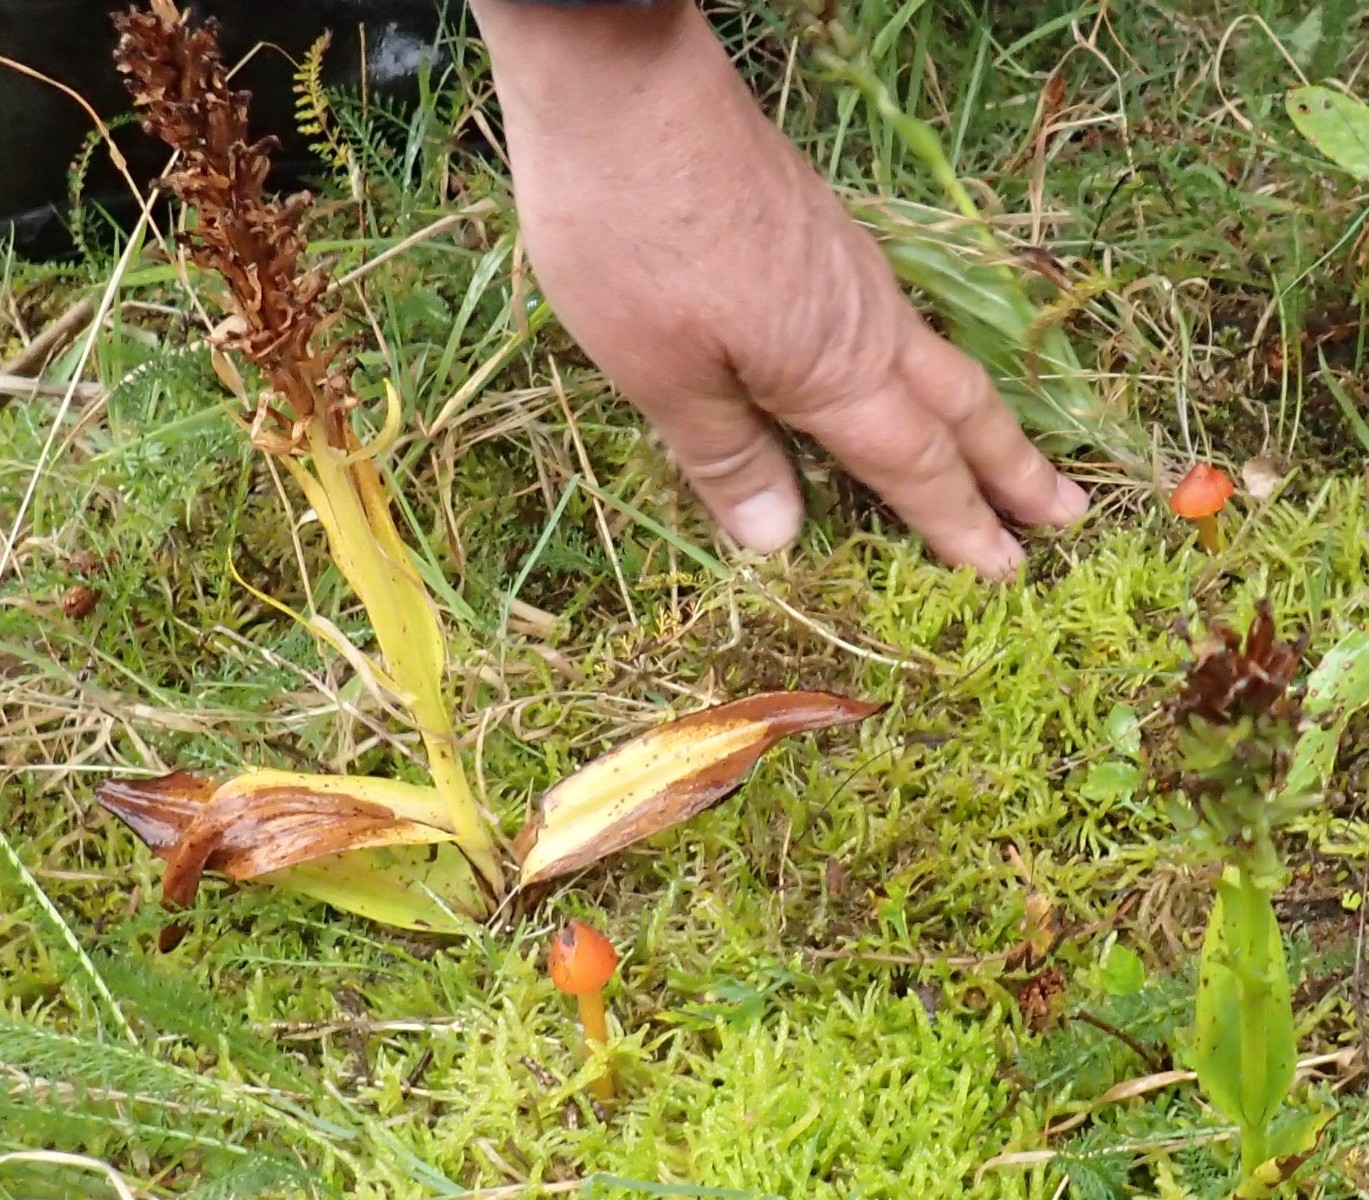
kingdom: Fungi
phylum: Basidiomycota
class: Agaricomycetes
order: Agaricales
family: Hygrophoraceae
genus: Hygrocybe
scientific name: Hygrocybe conica
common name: kegle-vokshat
